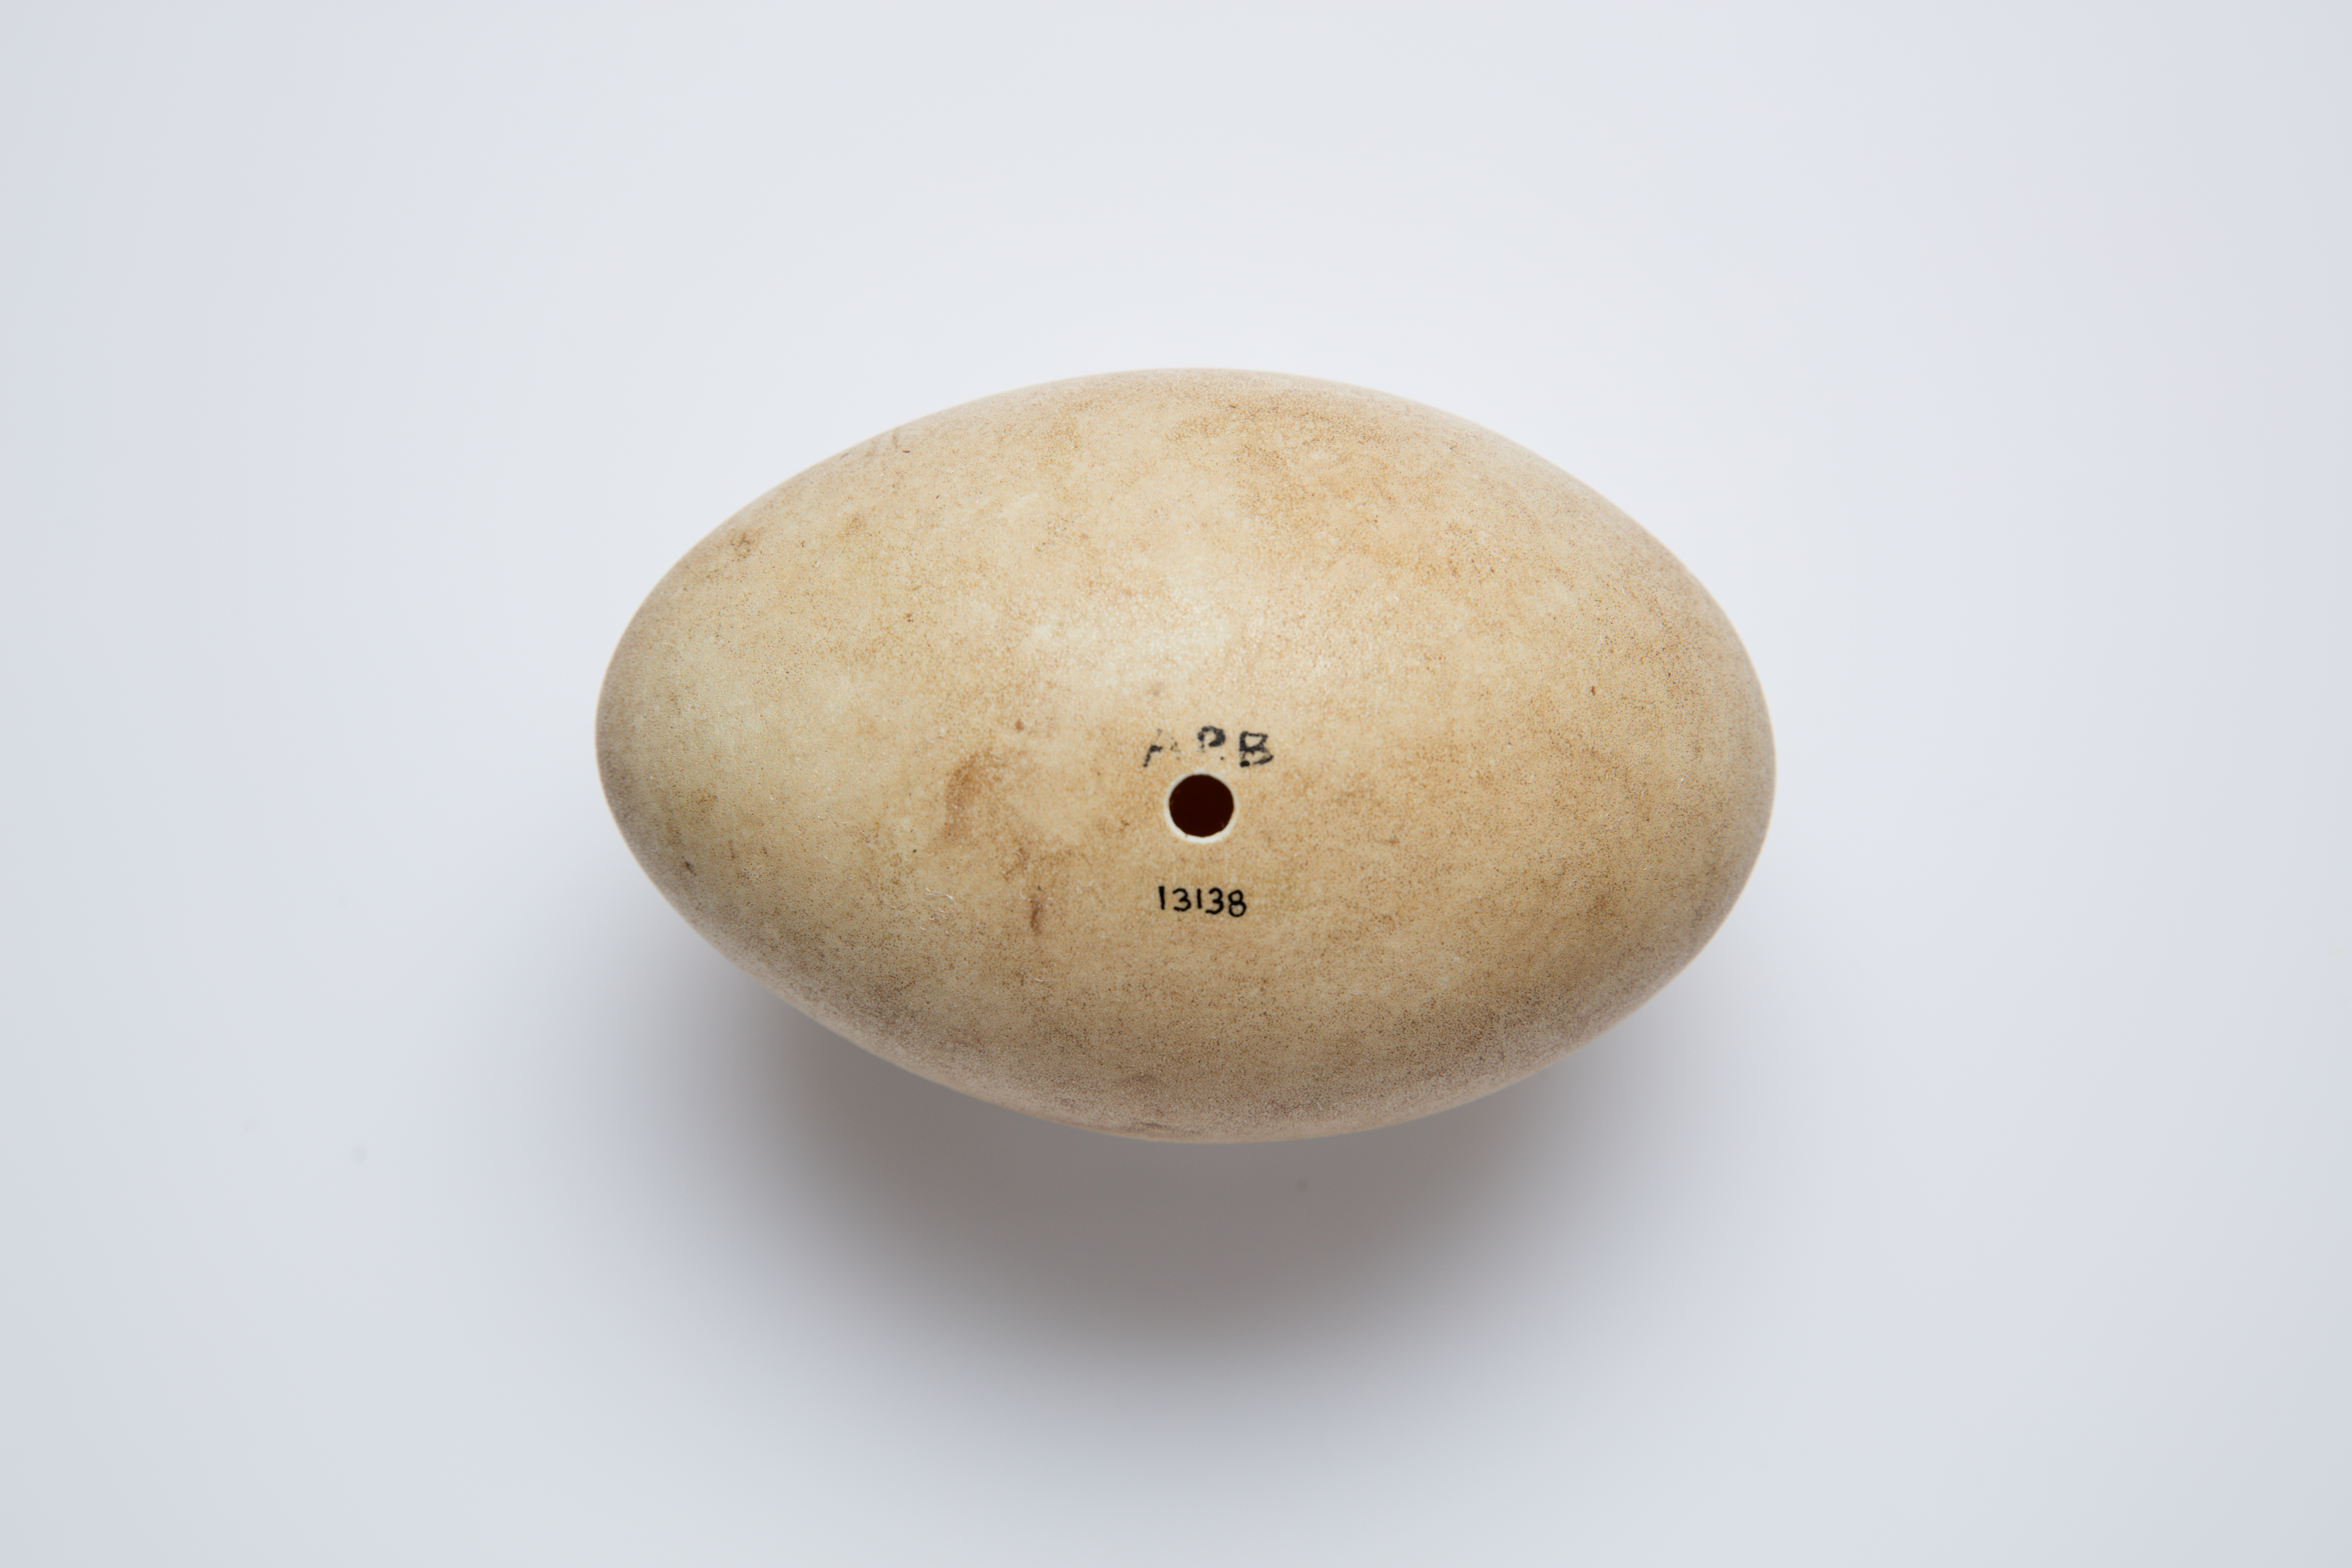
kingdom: Animalia
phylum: Chordata
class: Aves
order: Anseriformes
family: Anatidae
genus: Cygnus
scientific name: Cygnus atratus
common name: Black swan
